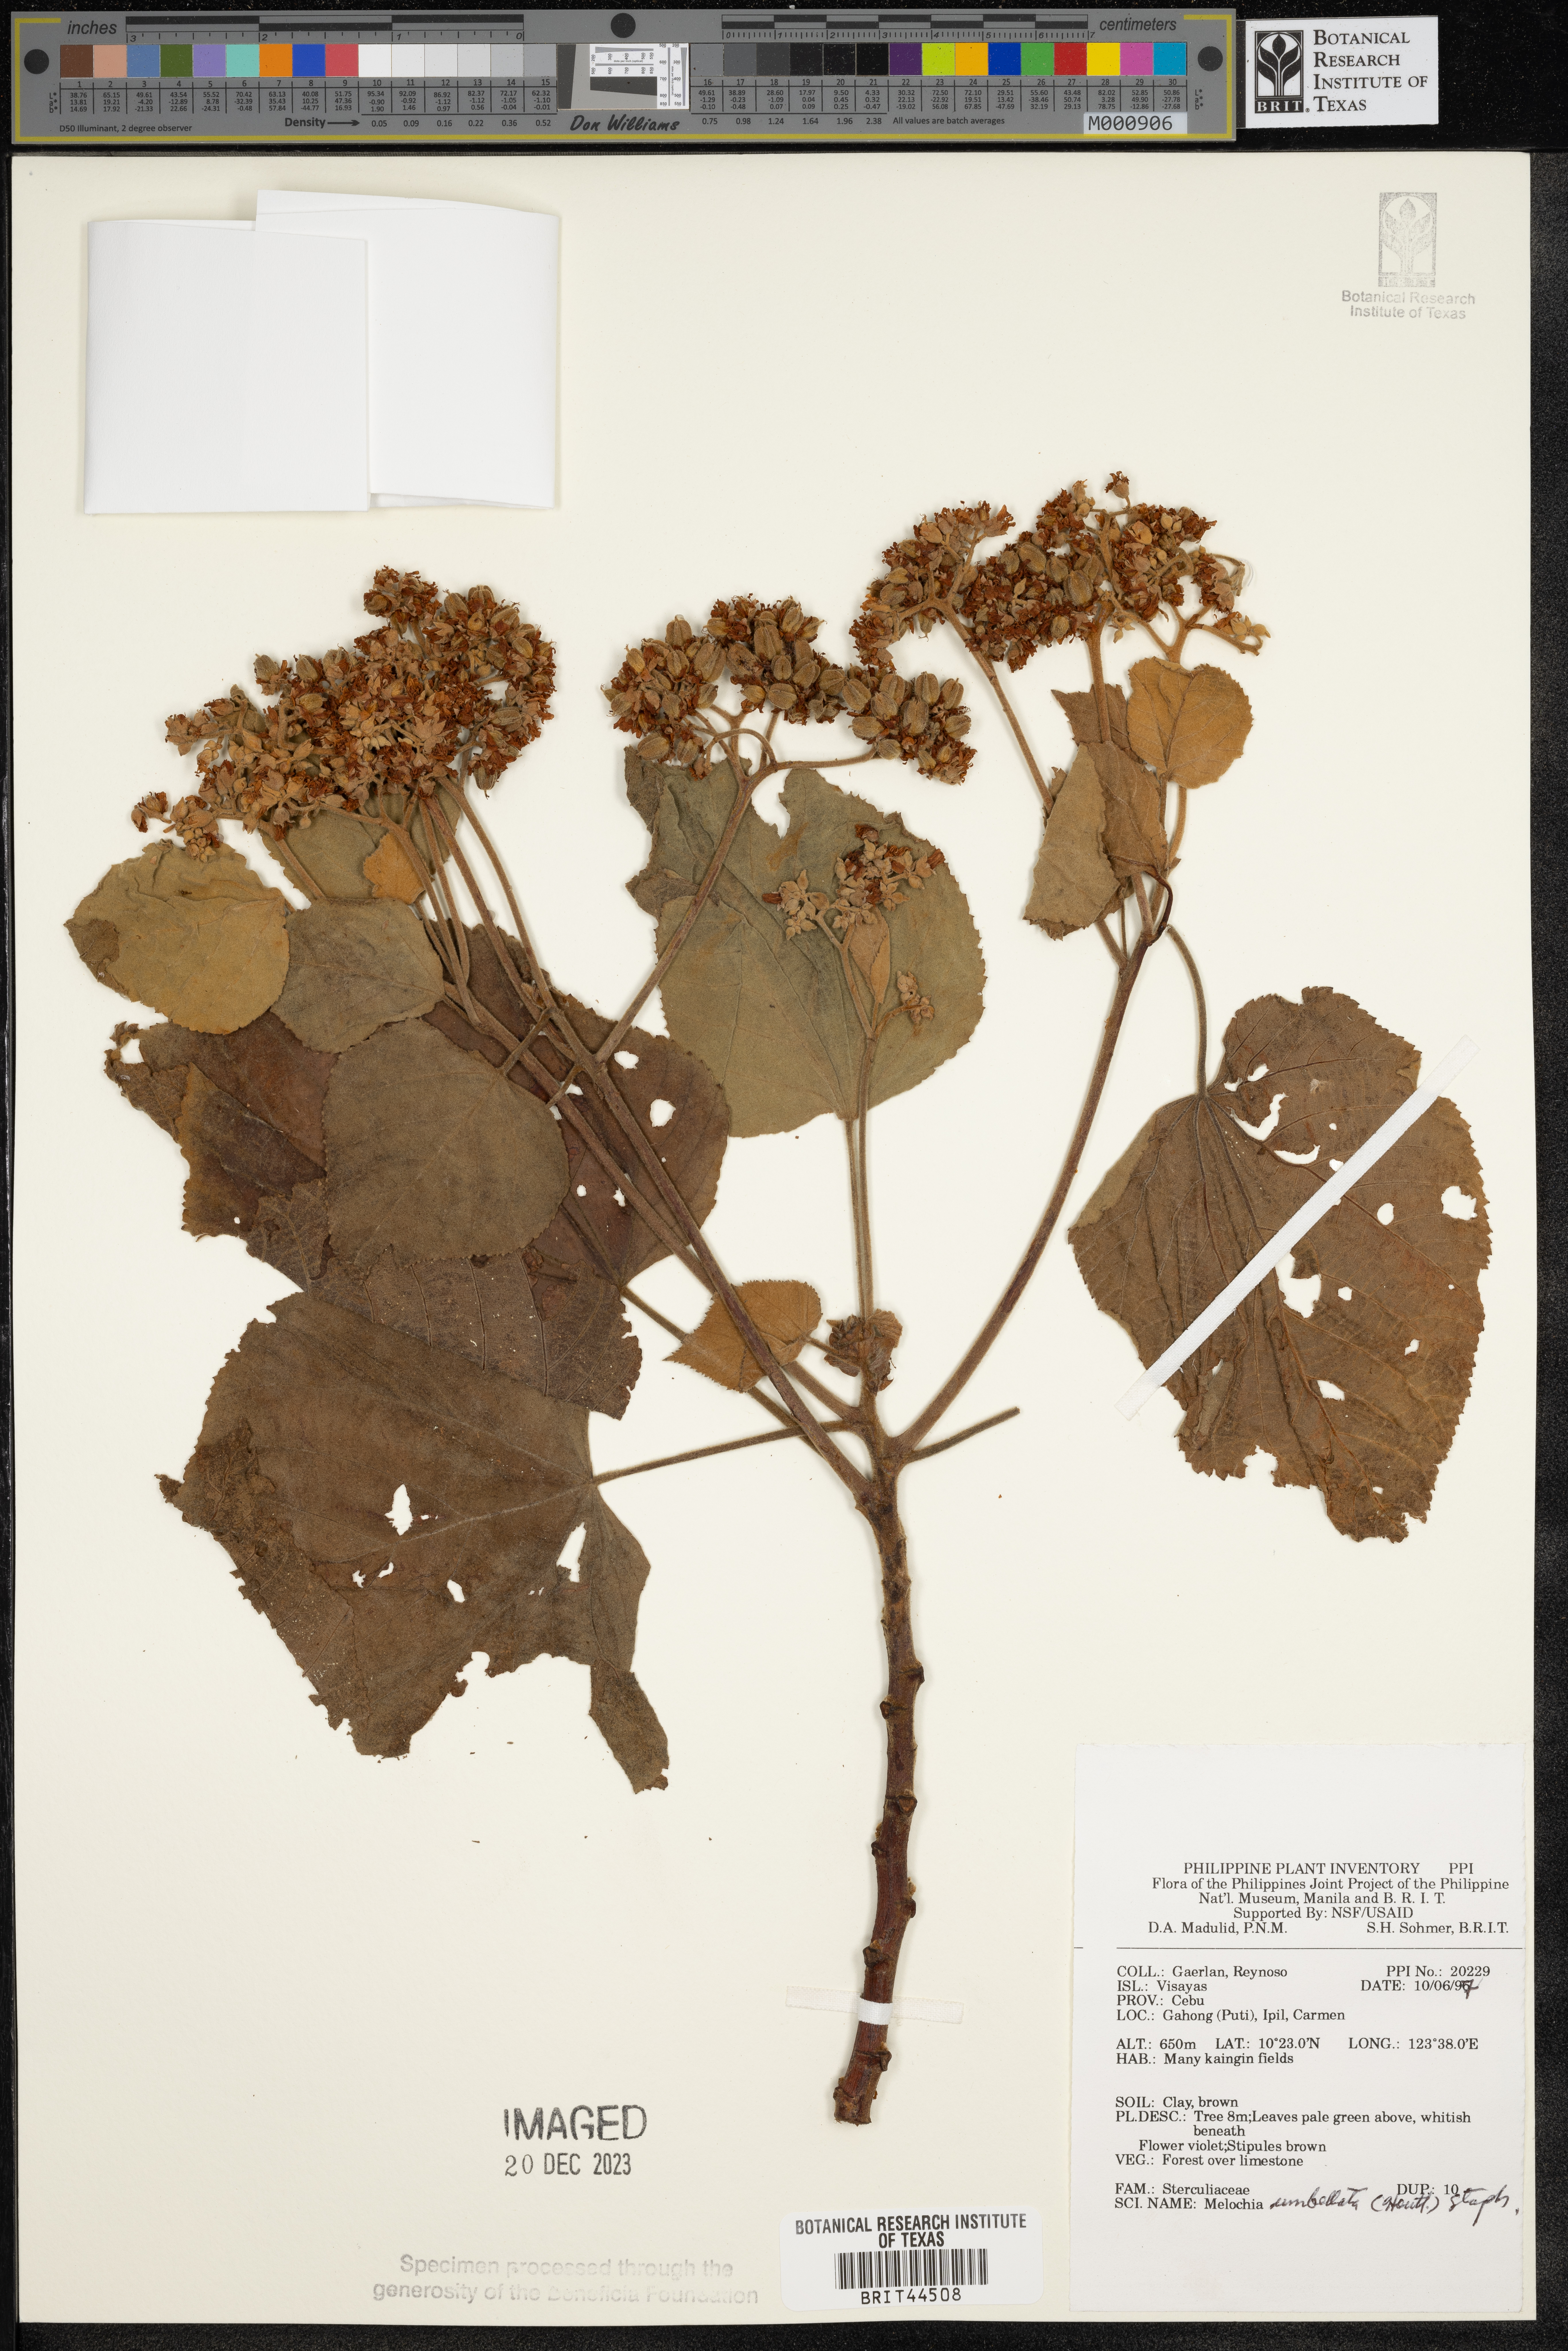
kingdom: Plantae
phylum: Tracheophyta
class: Magnoliopsida
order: Malvales
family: Malvaceae
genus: Melochia
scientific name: Melochia umbellata
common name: Gunpowder tree
